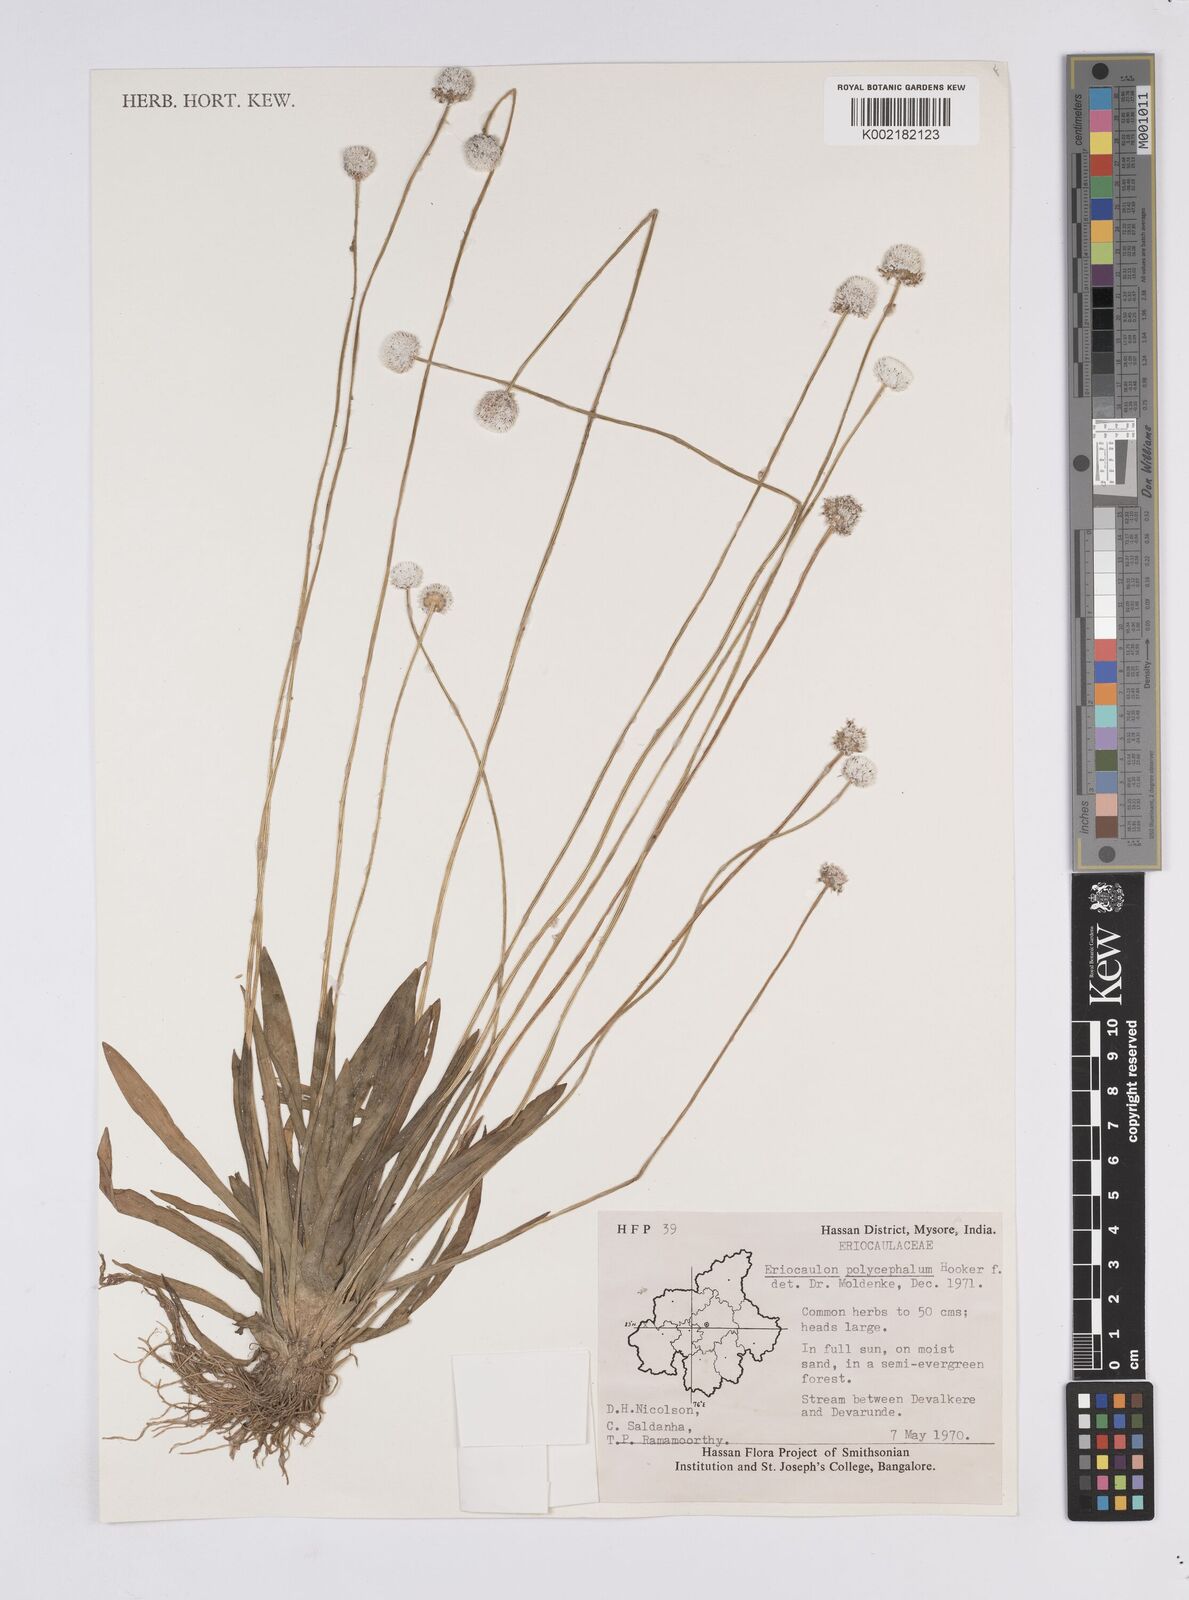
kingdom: Plantae
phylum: Tracheophyta
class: Liliopsida
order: Poales
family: Eriocaulaceae
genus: Eriocaulon
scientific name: Eriocaulon
